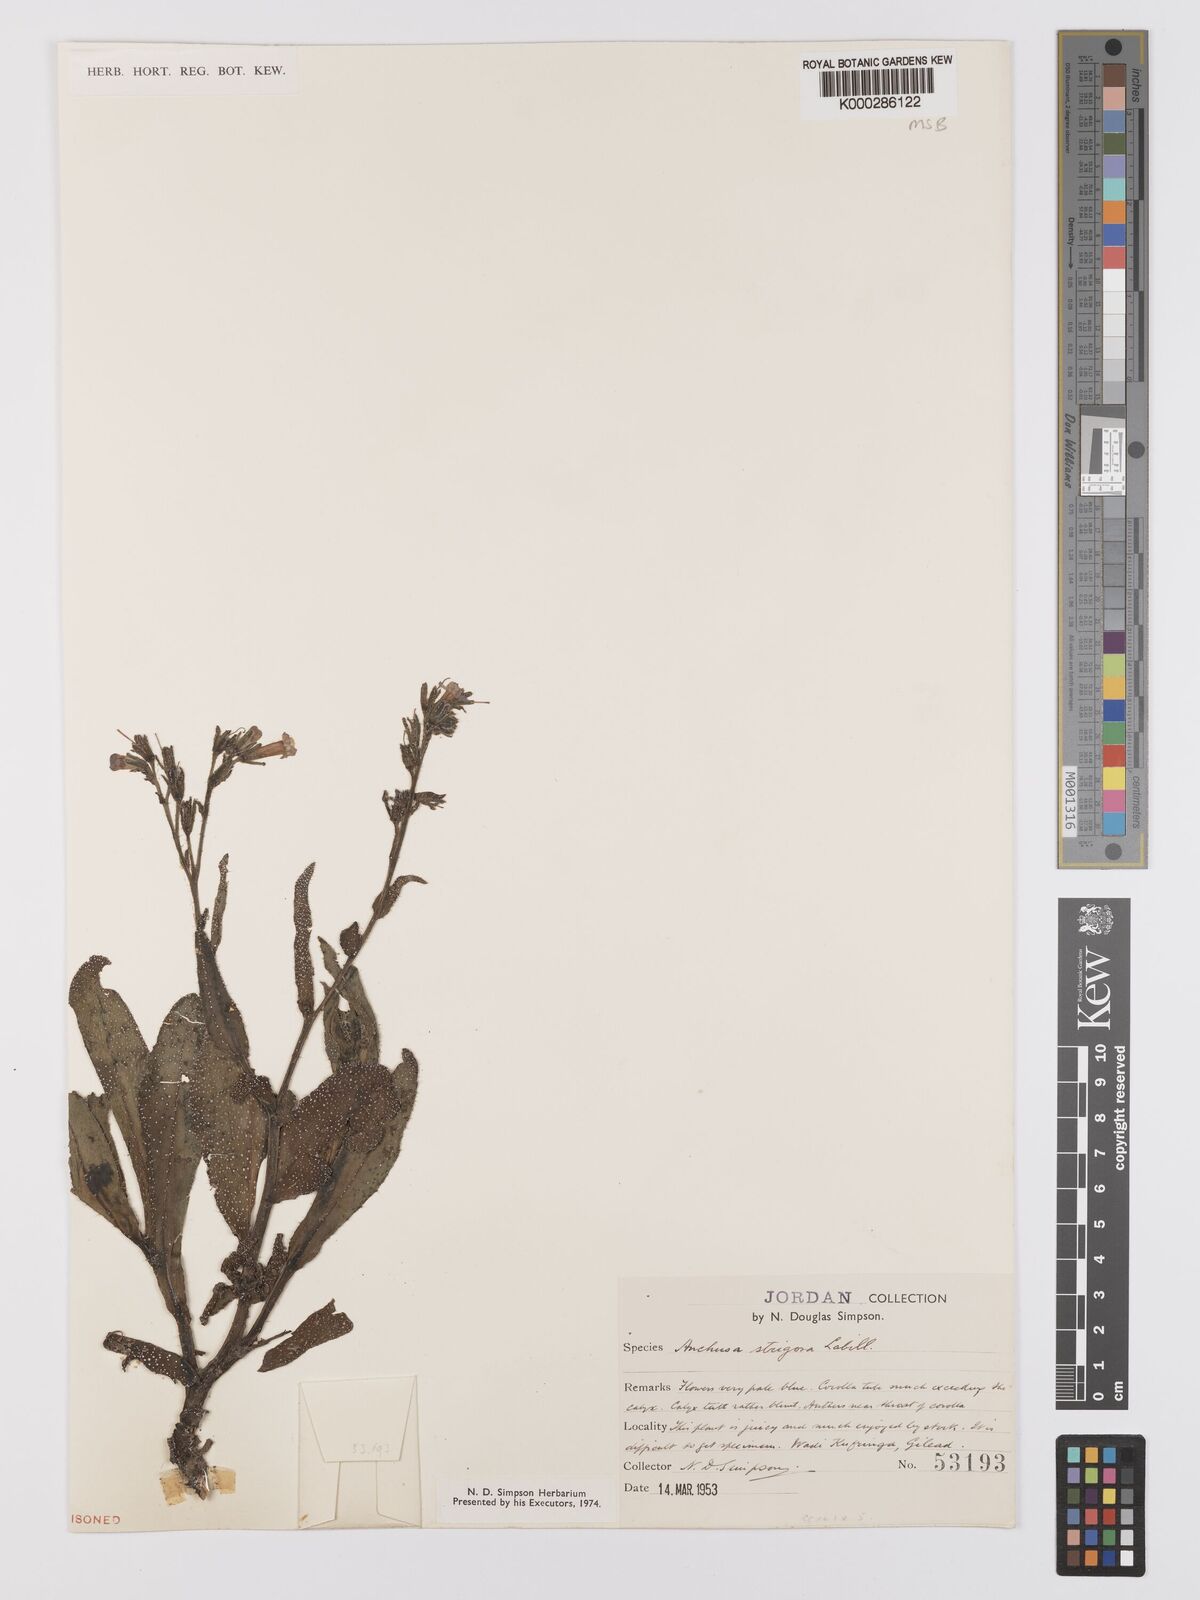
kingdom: Plantae
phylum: Tracheophyta
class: Magnoliopsida
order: Boraginales
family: Boraginaceae
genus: Anchusa
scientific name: Anchusa strigosa
